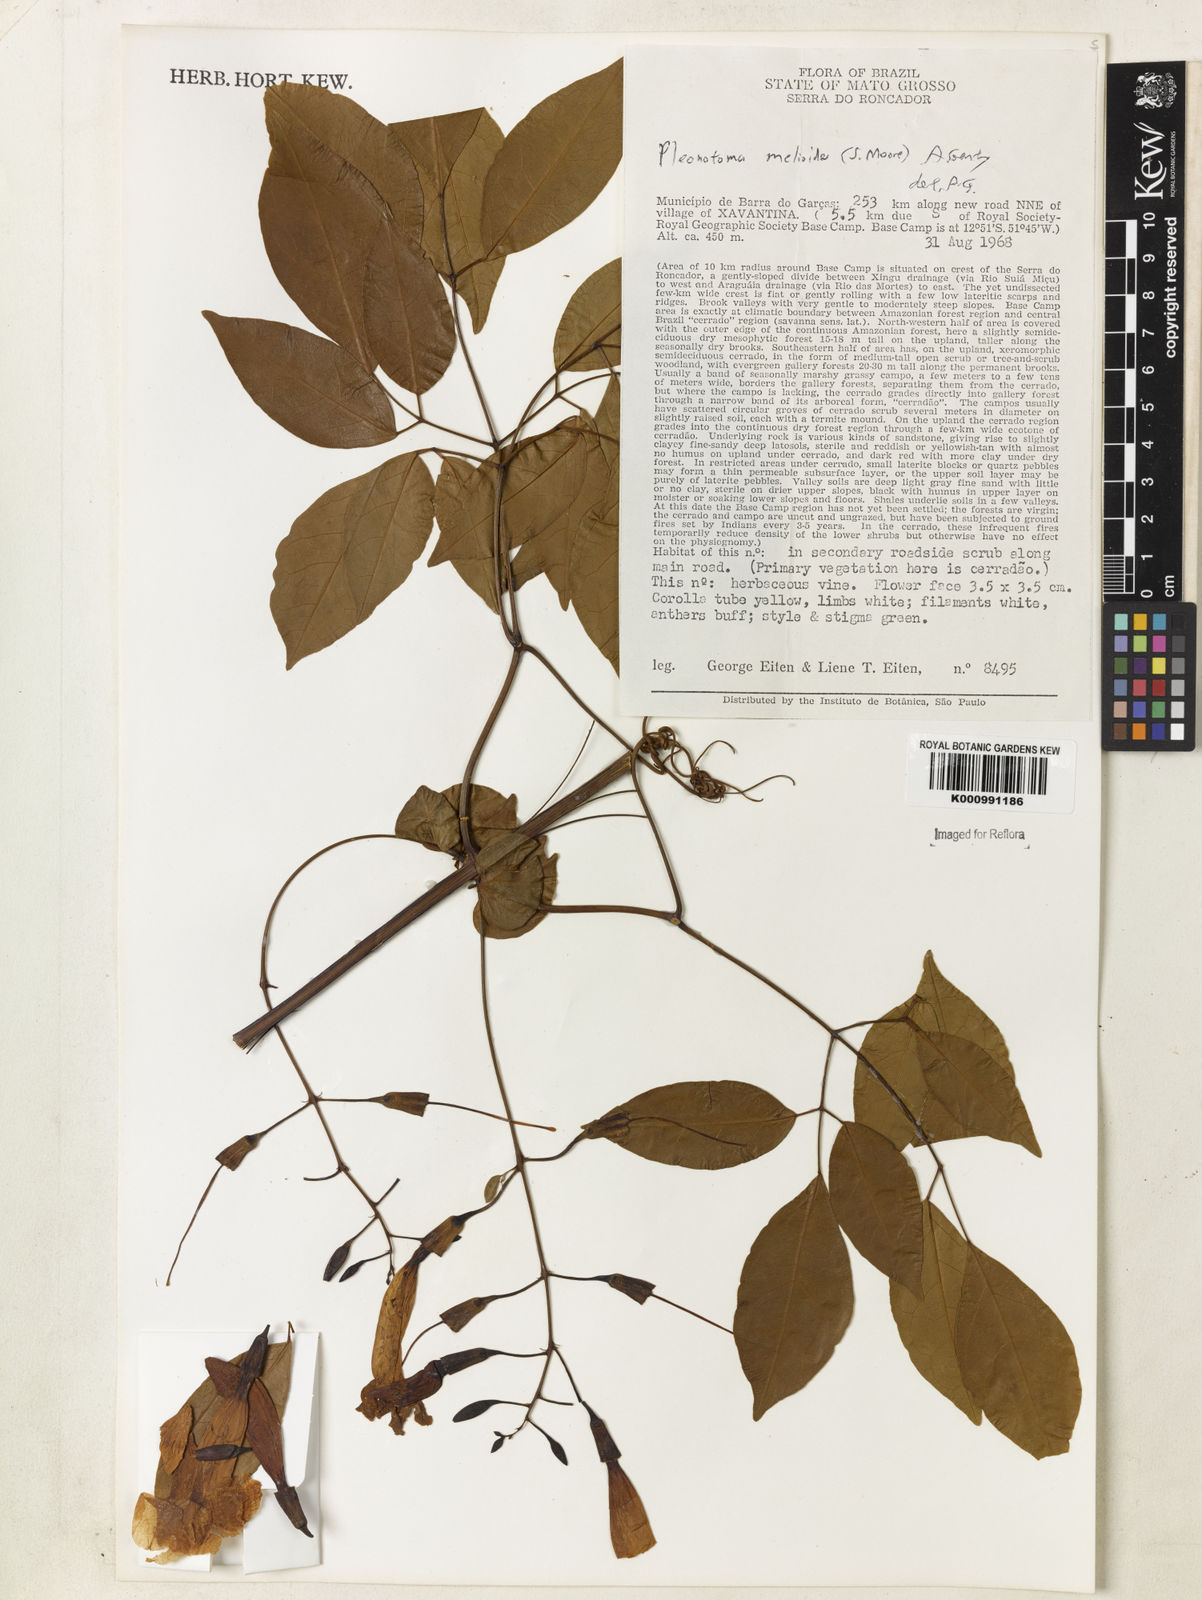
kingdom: Plantae
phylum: Tracheophyta
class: Magnoliopsida
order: Lamiales
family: Bignoniaceae
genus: Pleonotoma
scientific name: Pleonotoma melioides
